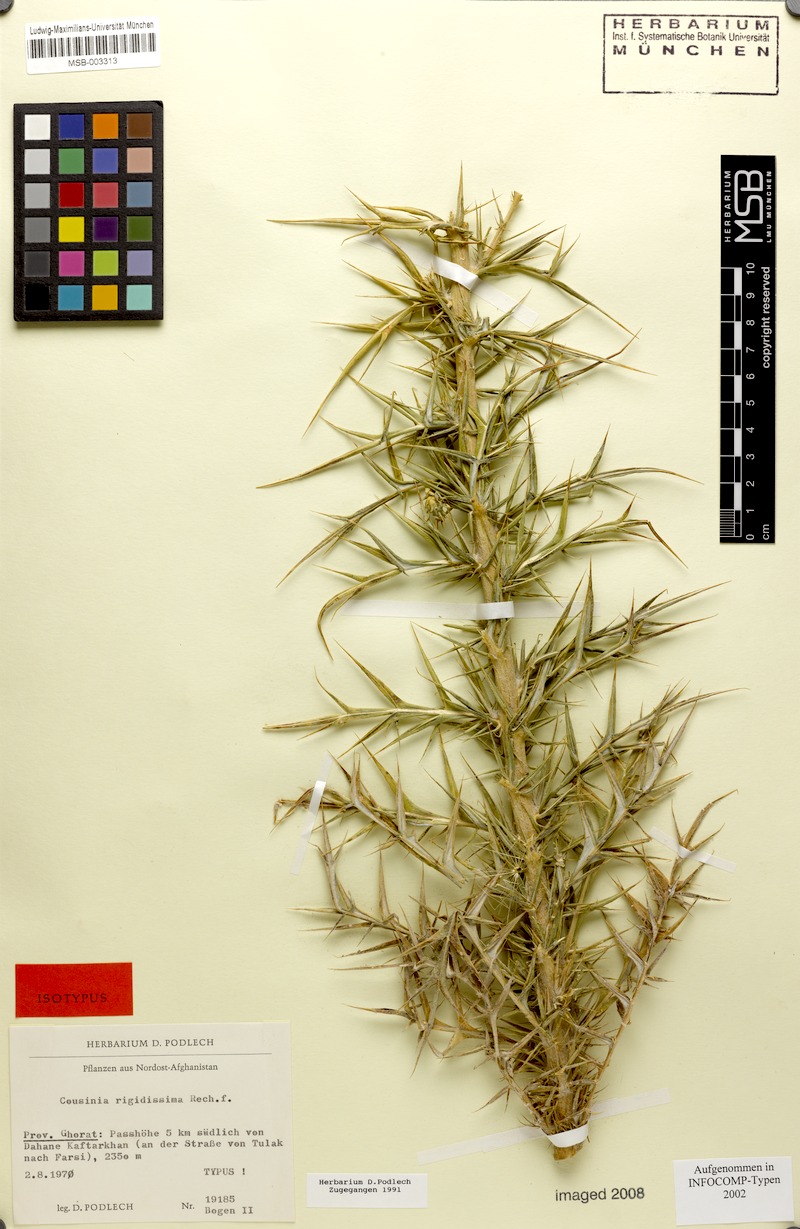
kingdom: Plantae
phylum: Tracheophyta
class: Magnoliopsida
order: Asterales
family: Asteraceae
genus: Cousinia
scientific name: Cousinia rigidissima
